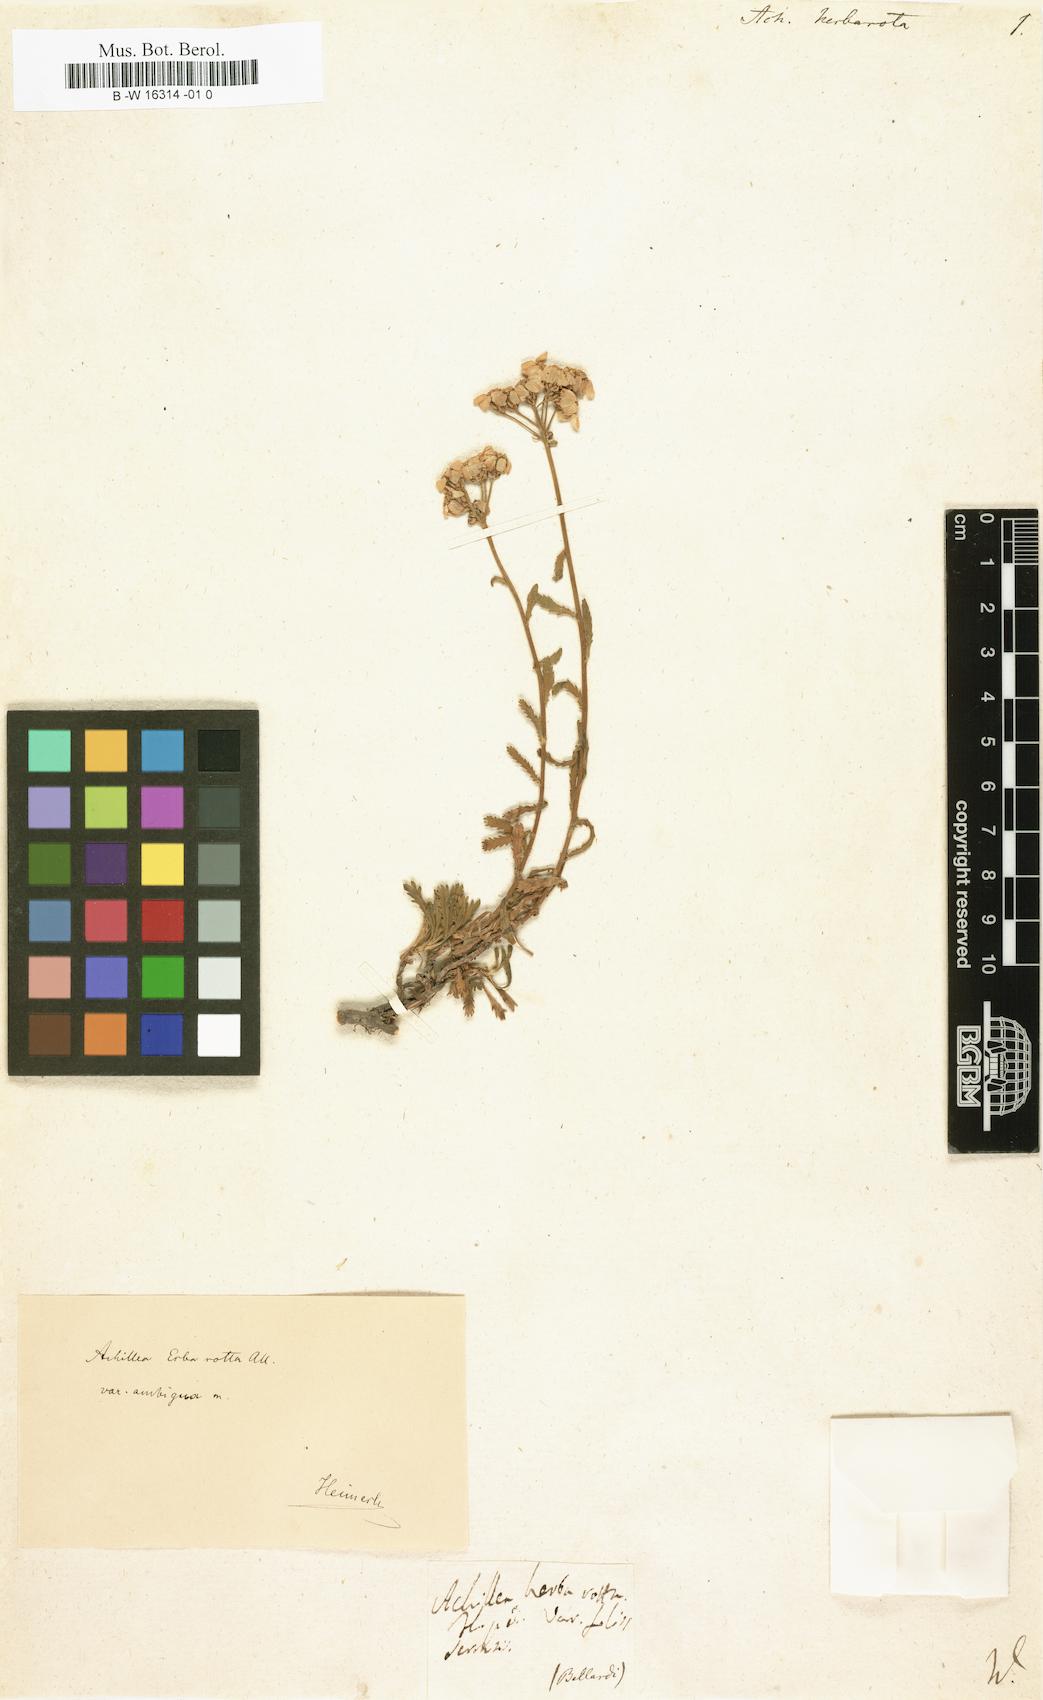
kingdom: Plantae
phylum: Tracheophyta
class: Magnoliopsida
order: Asterales
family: Asteraceae
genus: Achillea
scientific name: Achillea erba-rotta
